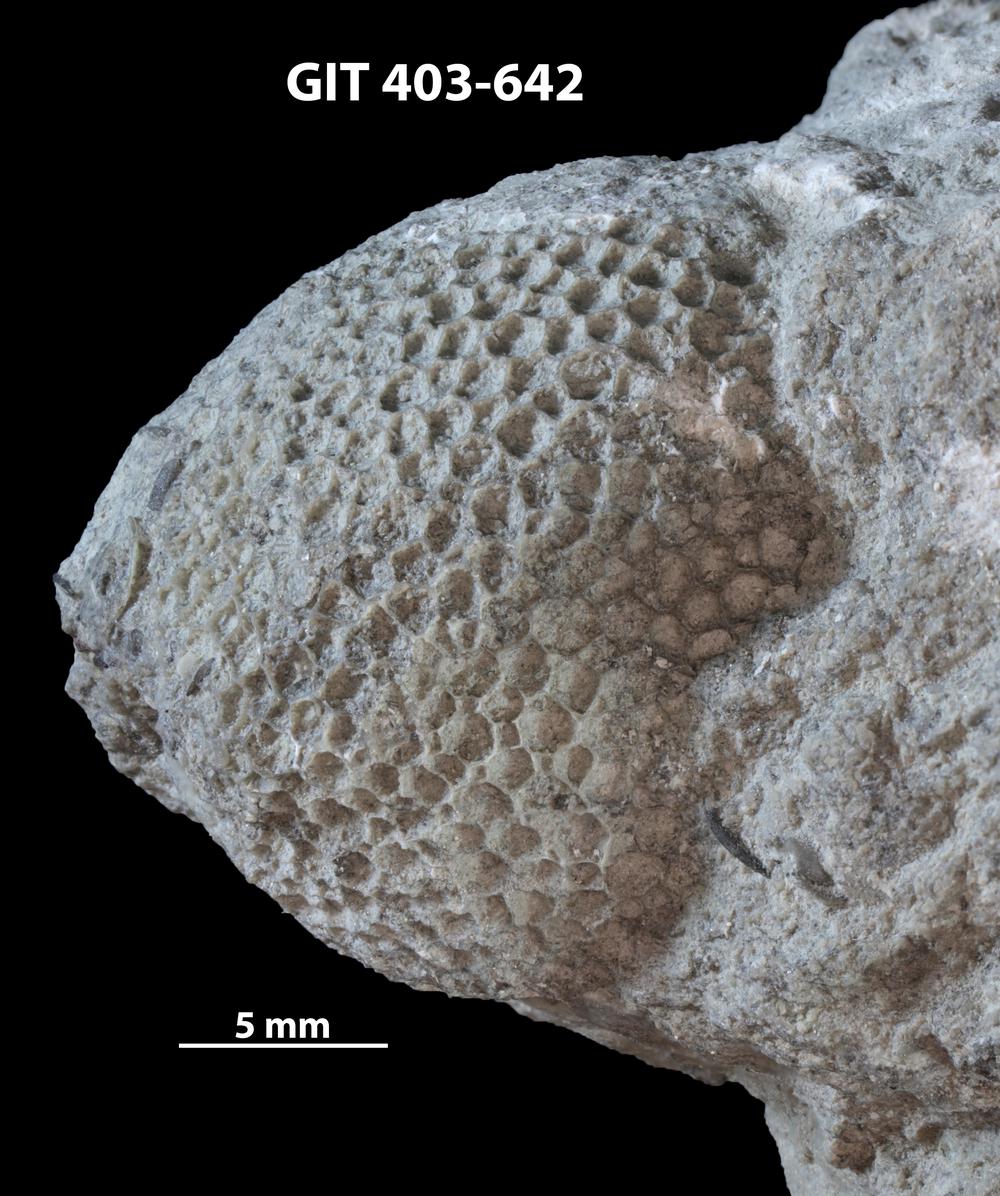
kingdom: Animalia
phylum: Cnidaria
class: Anthozoa
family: Favositidae
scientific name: Favositidae
